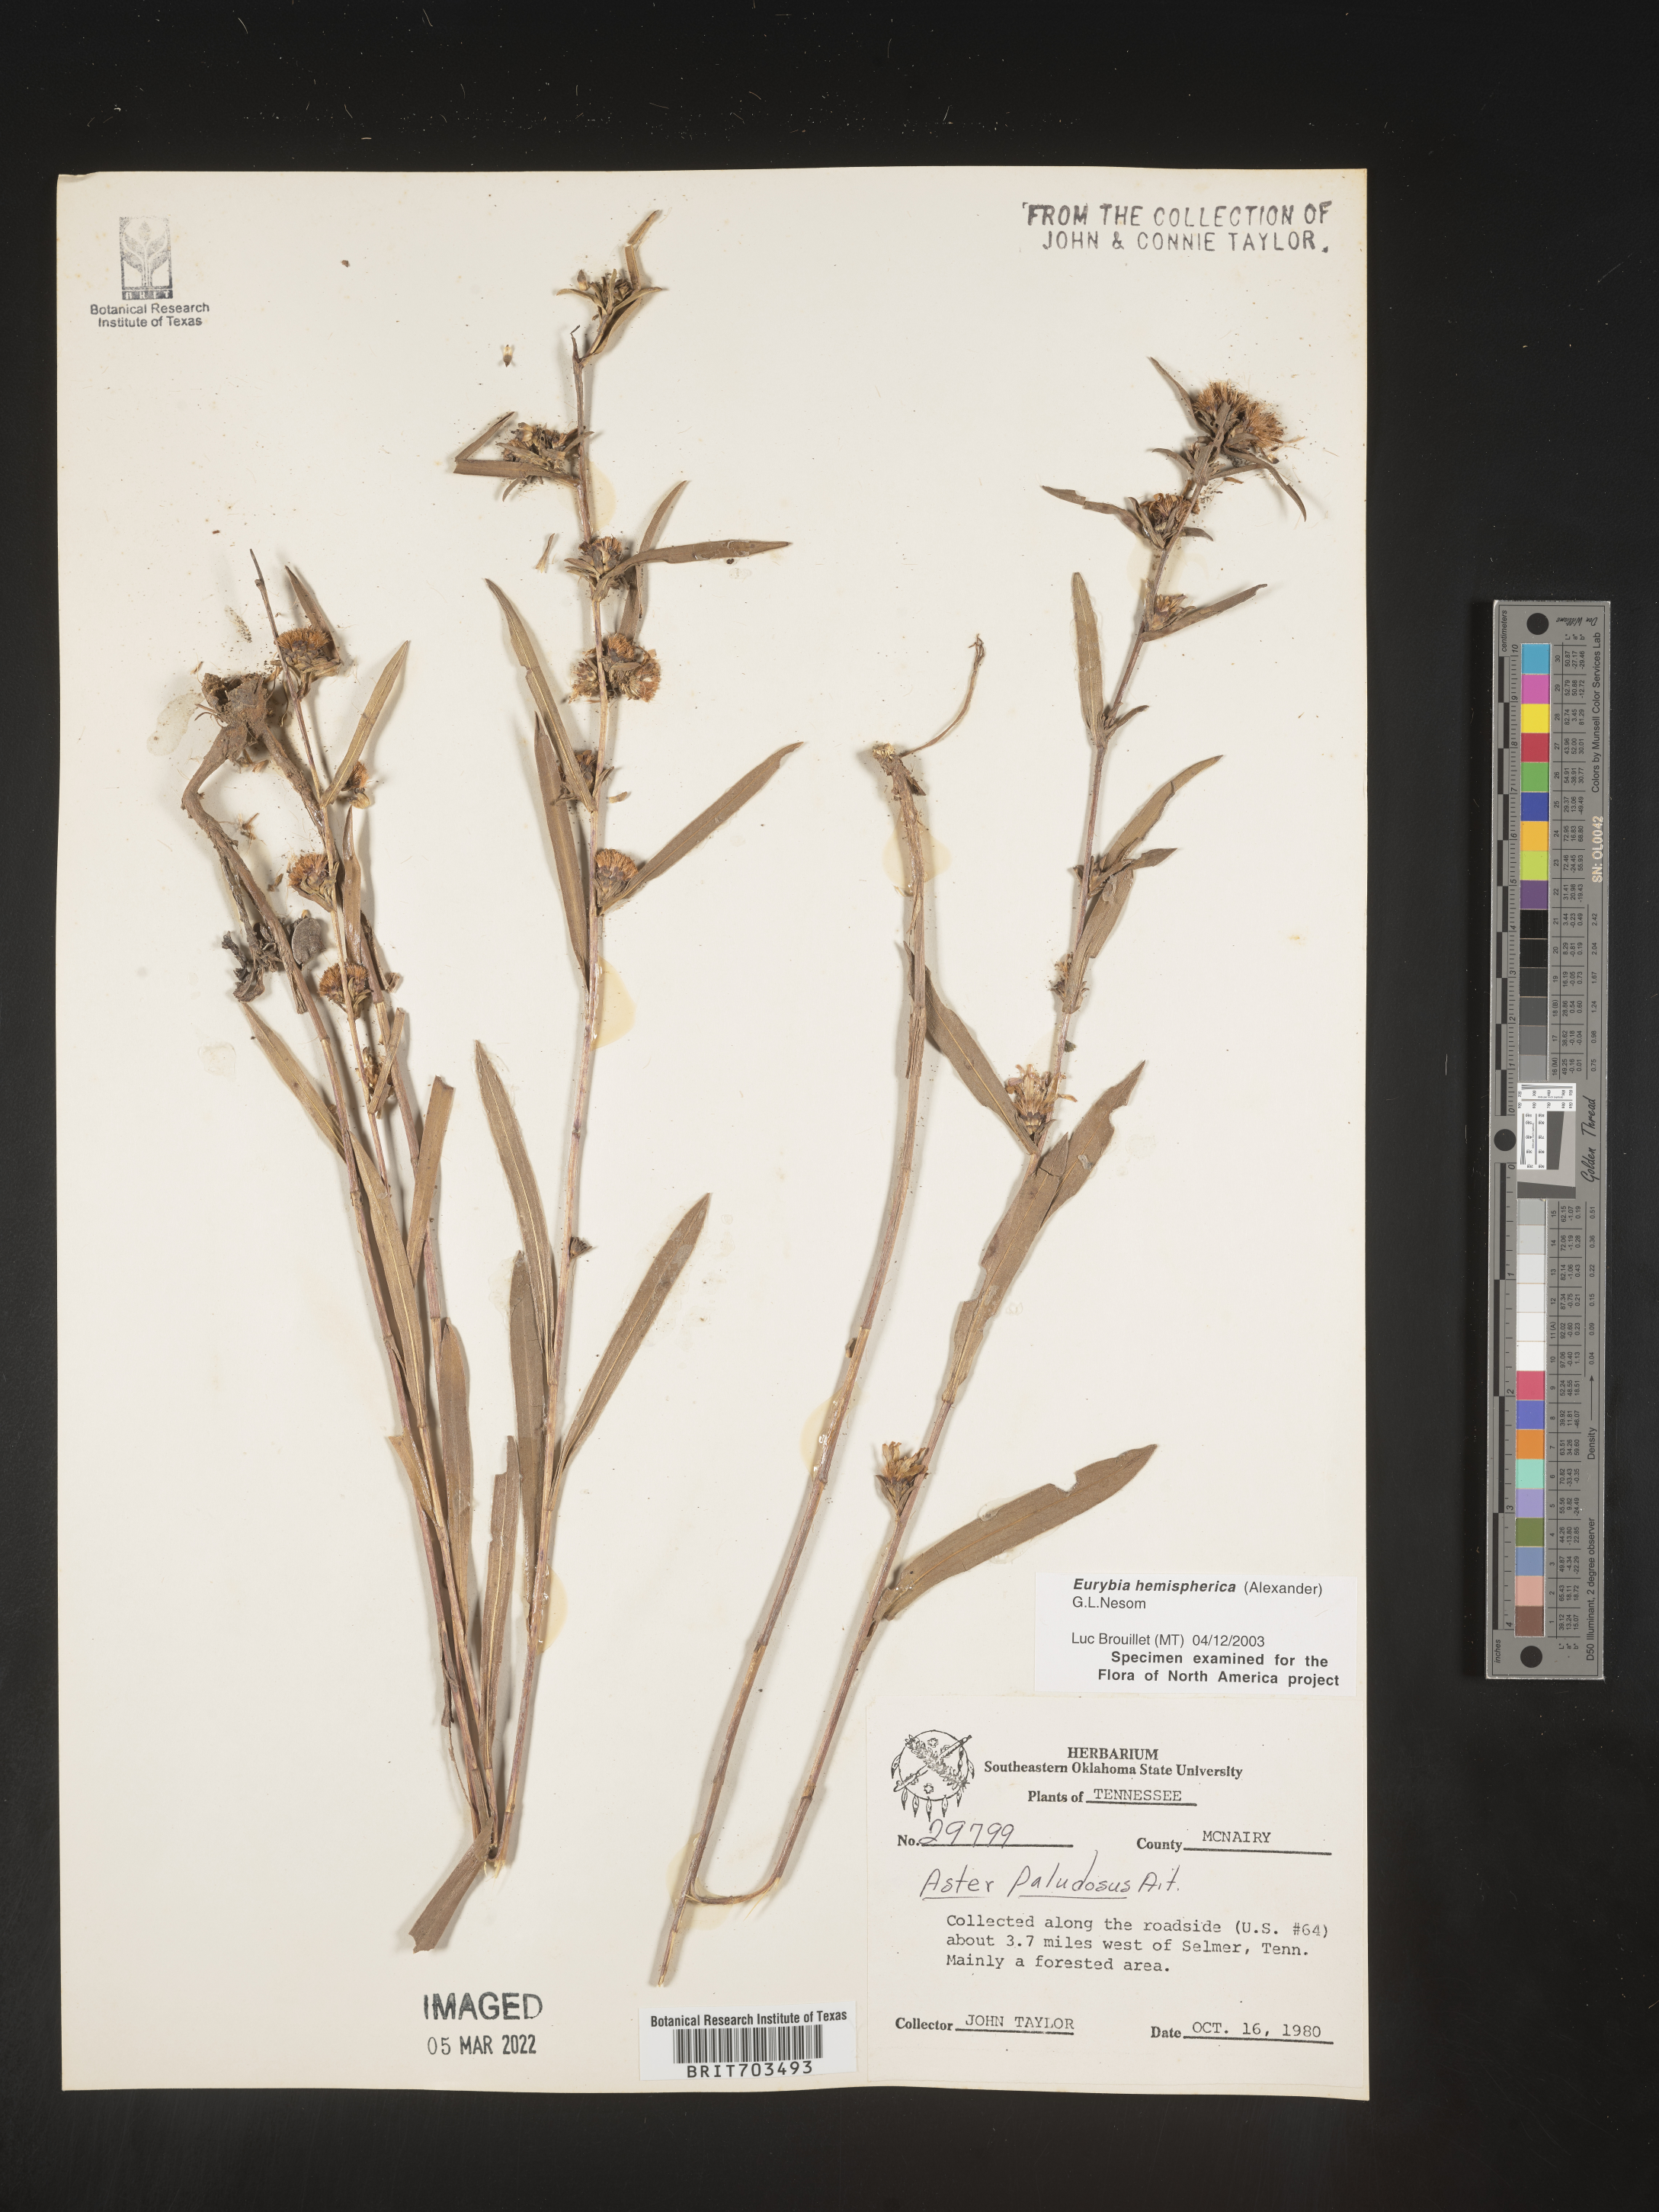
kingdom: Plantae
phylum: Tracheophyta
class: Magnoliopsida
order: Asterales
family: Asteraceae
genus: Eurybia
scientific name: Eurybia hemispherica
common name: Showy aster
